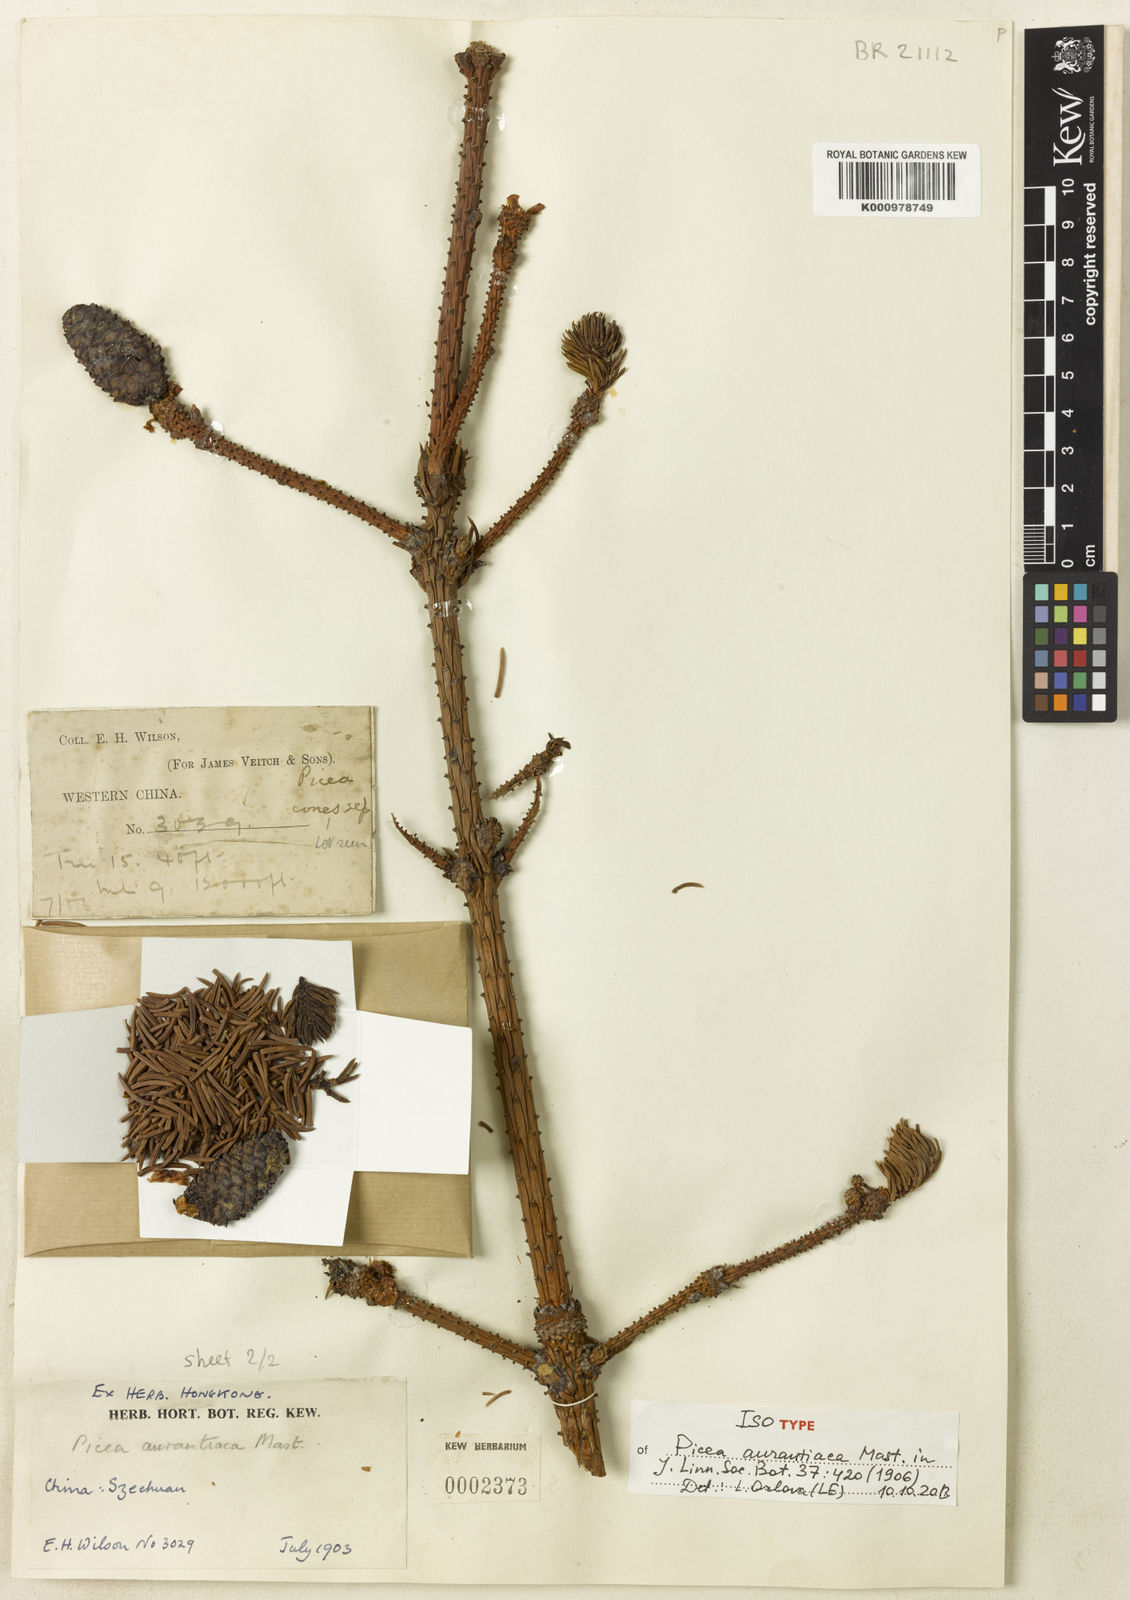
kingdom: Plantae
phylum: Tracheophyta
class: Pinopsida
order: Pinales
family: Pinaceae
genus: Picea
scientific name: Picea aurantiaca
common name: Orange spruce
